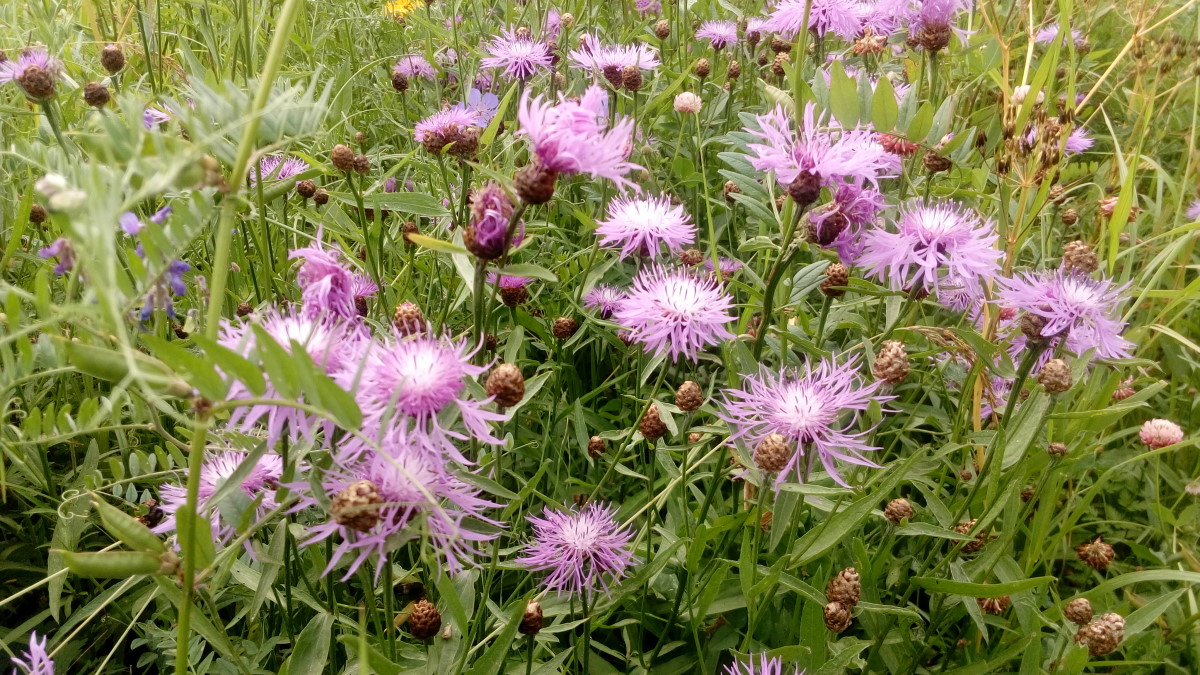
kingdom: Plantae
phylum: Tracheophyta
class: Magnoliopsida
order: Asterales
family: Asteraceae
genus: Centaurea
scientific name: Centaurea jacea
